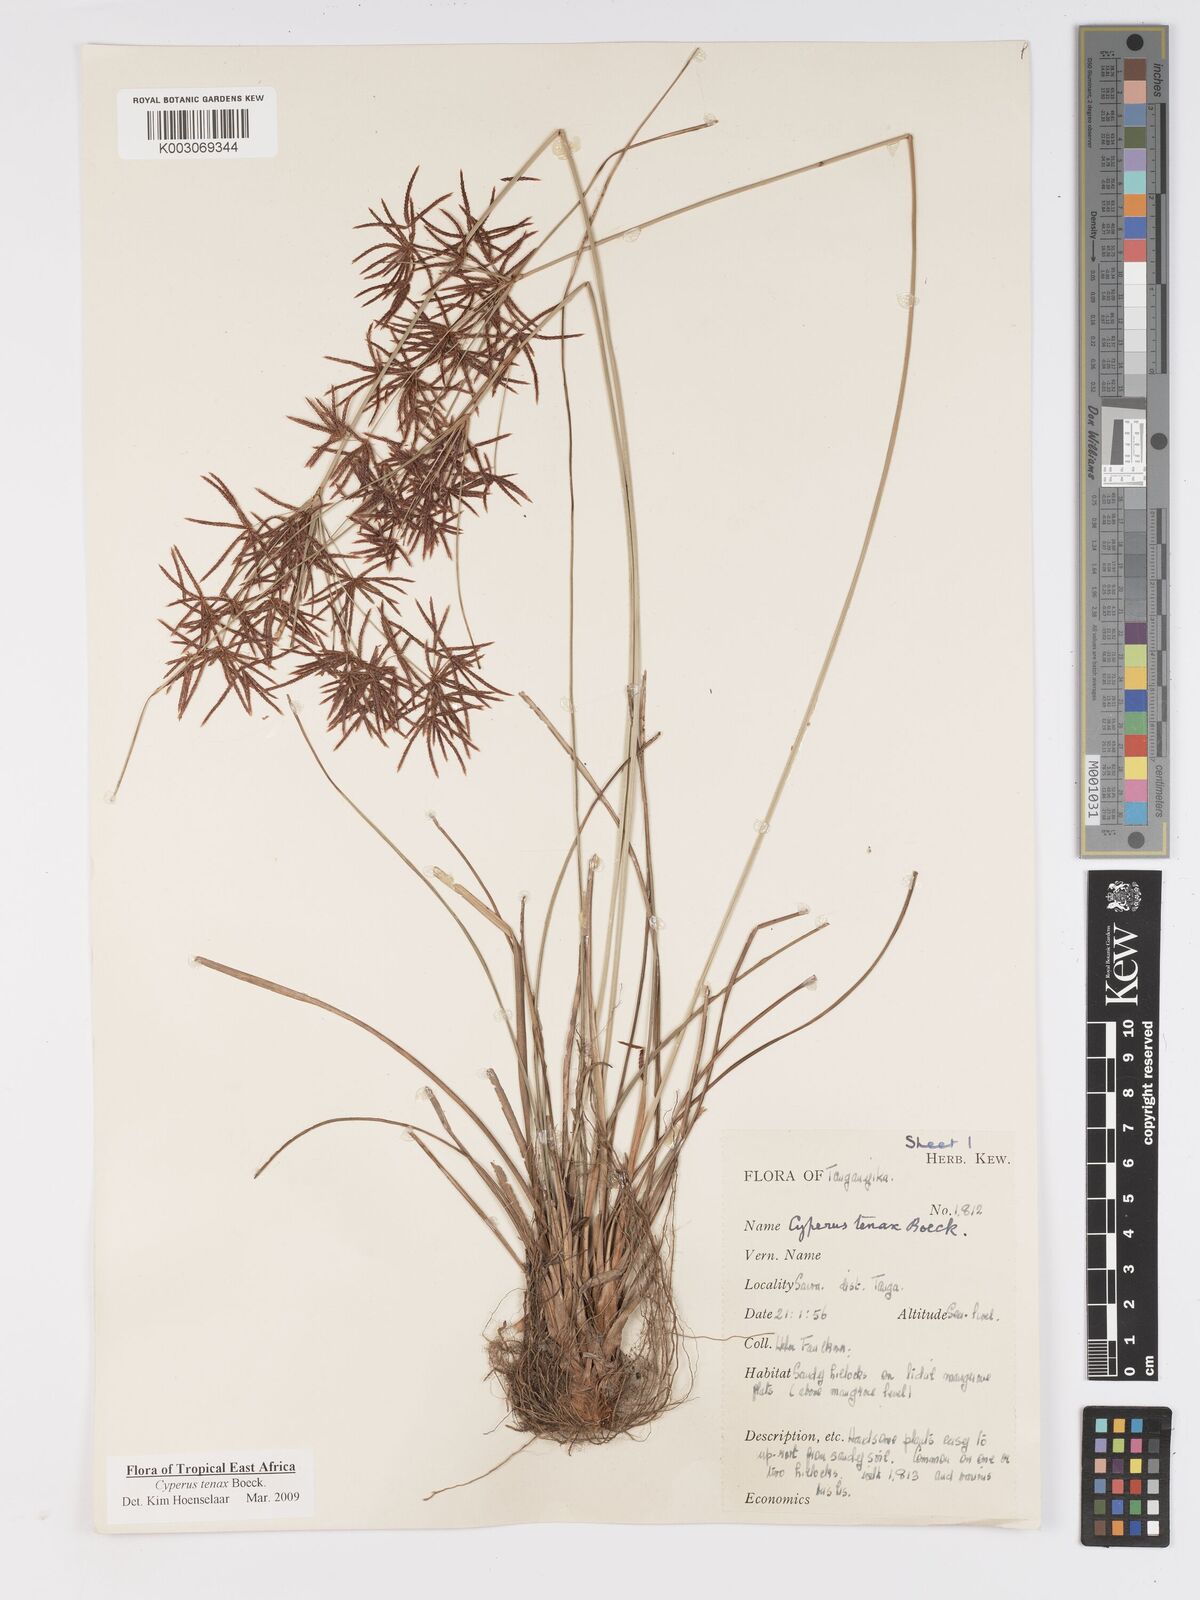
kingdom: Plantae
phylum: Tracheophyta
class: Liliopsida
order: Poales
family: Cyperaceae
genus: Cyperus
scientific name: Cyperus tenax
